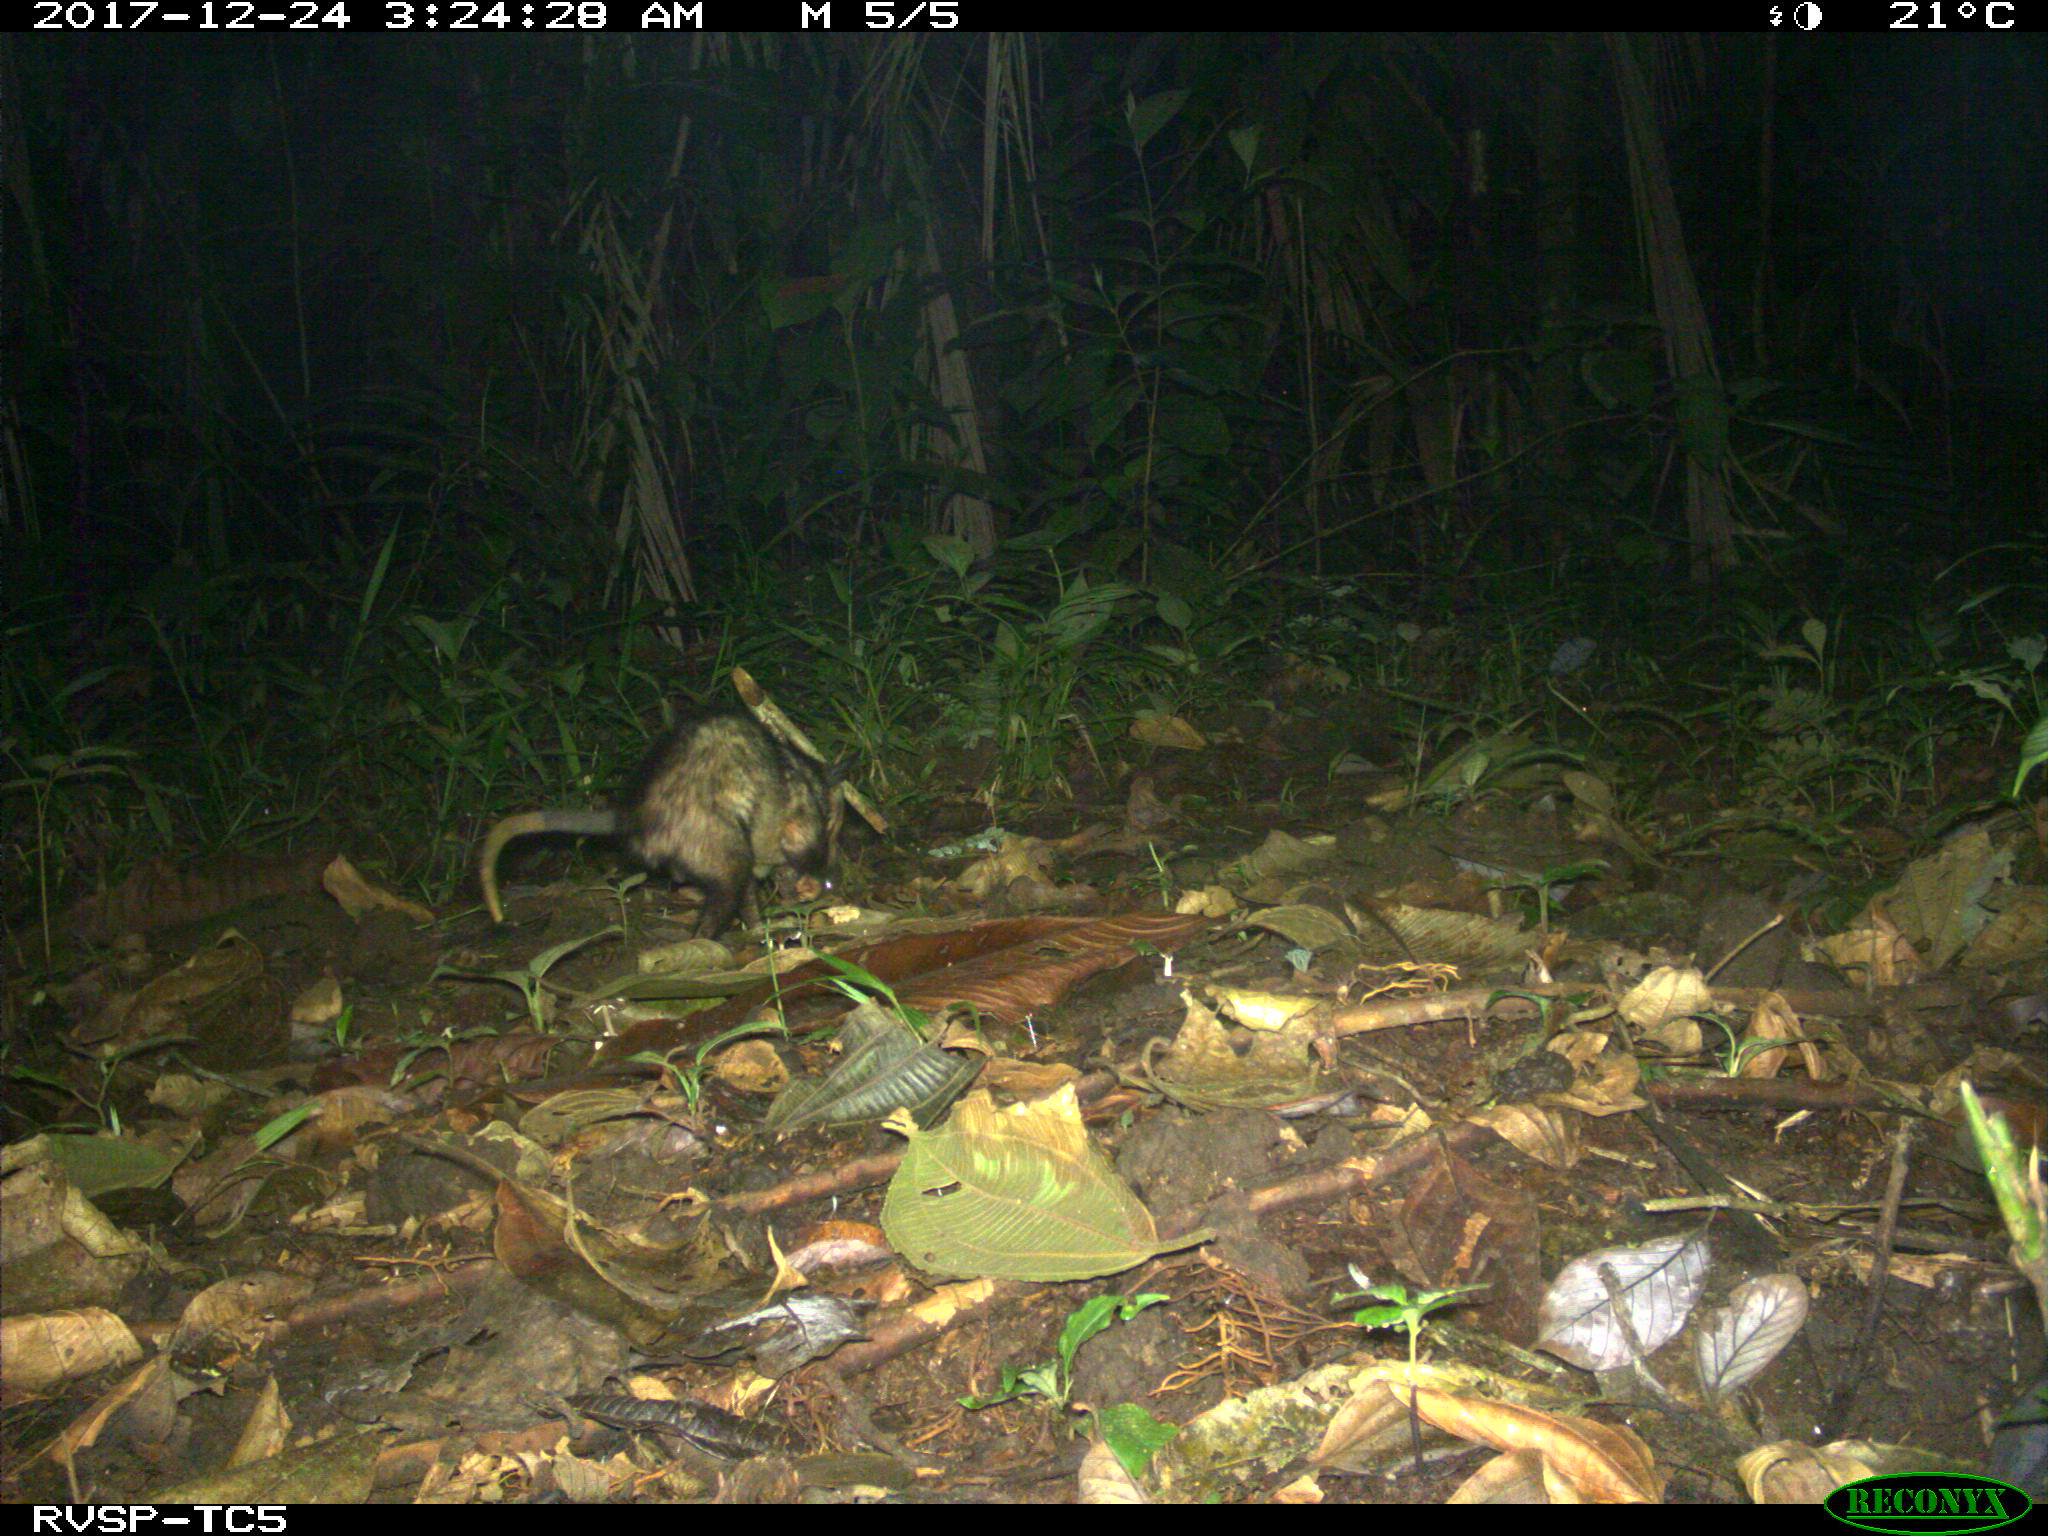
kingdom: Animalia
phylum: Chordata
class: Mammalia
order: Didelphimorphia
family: Didelphidae
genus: Didelphis
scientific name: Didelphis marsupialis
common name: Common opossum
